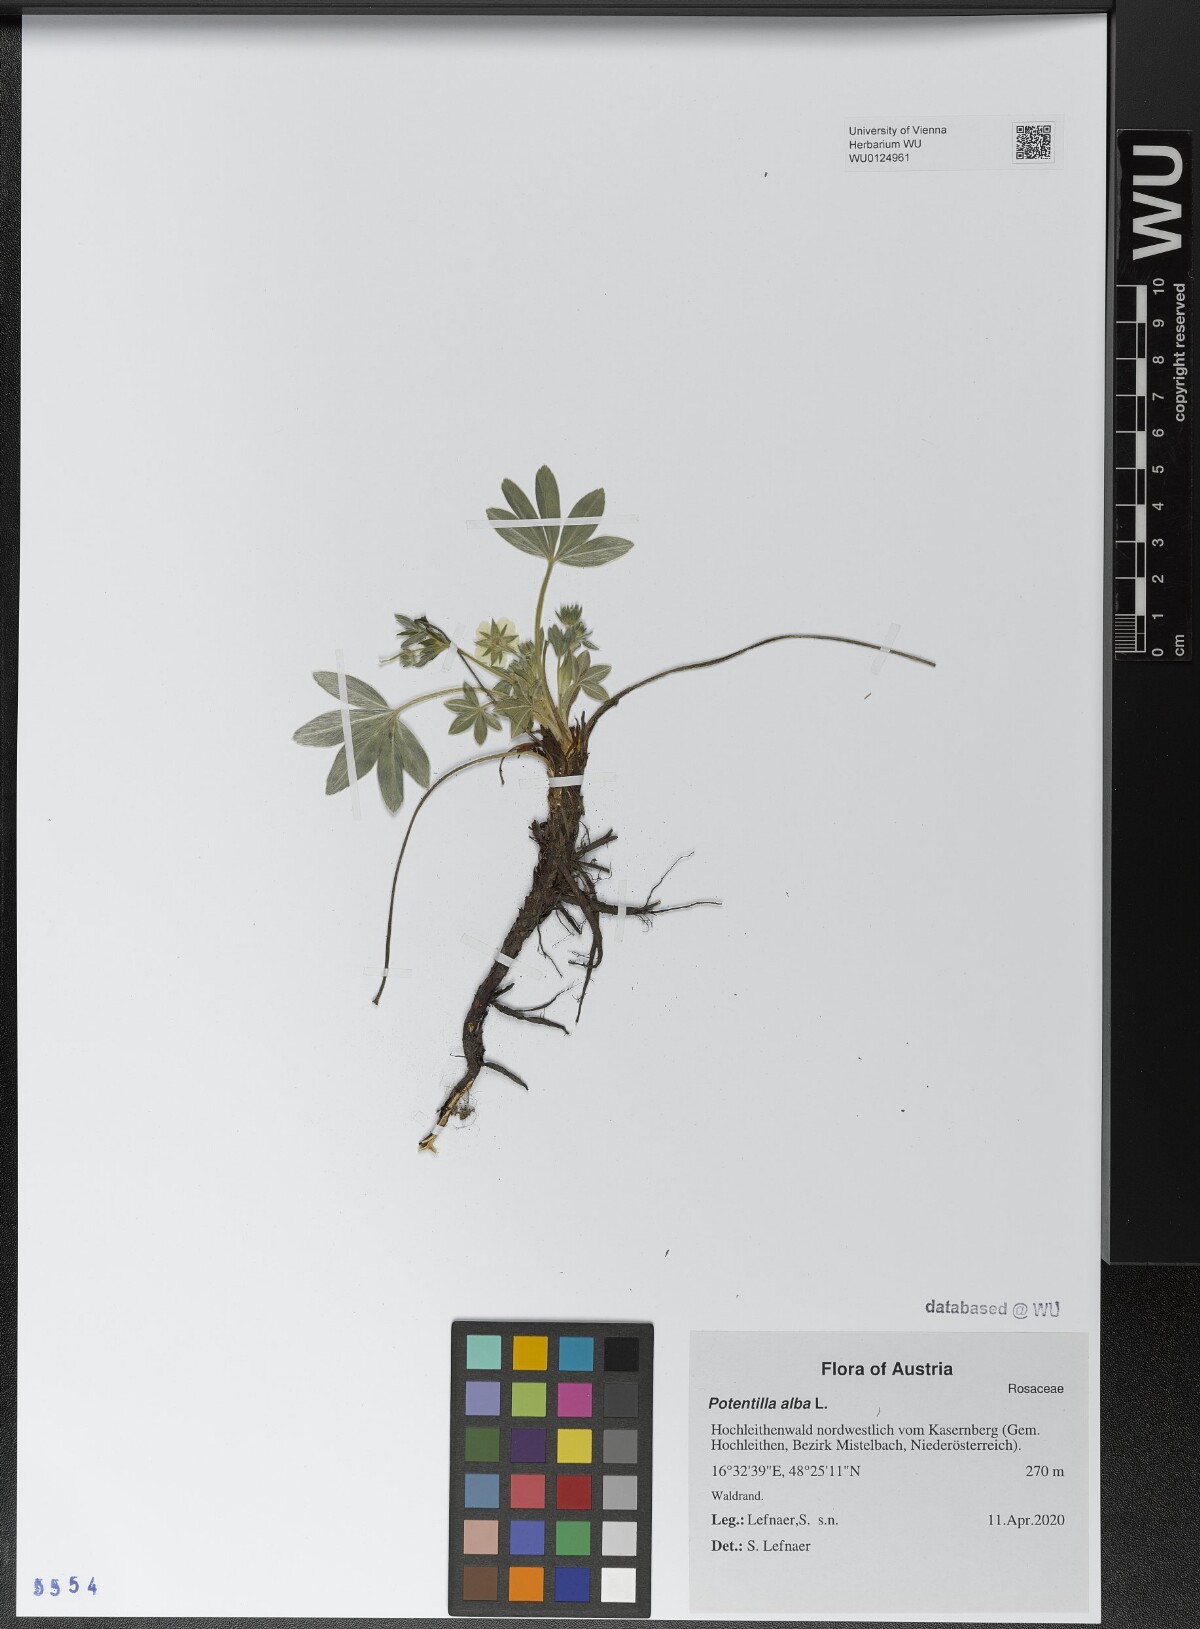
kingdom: Plantae
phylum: Tracheophyta
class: Magnoliopsida
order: Rosales
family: Rosaceae
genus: Potentilla
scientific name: Potentilla alba
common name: White cinquefoil
